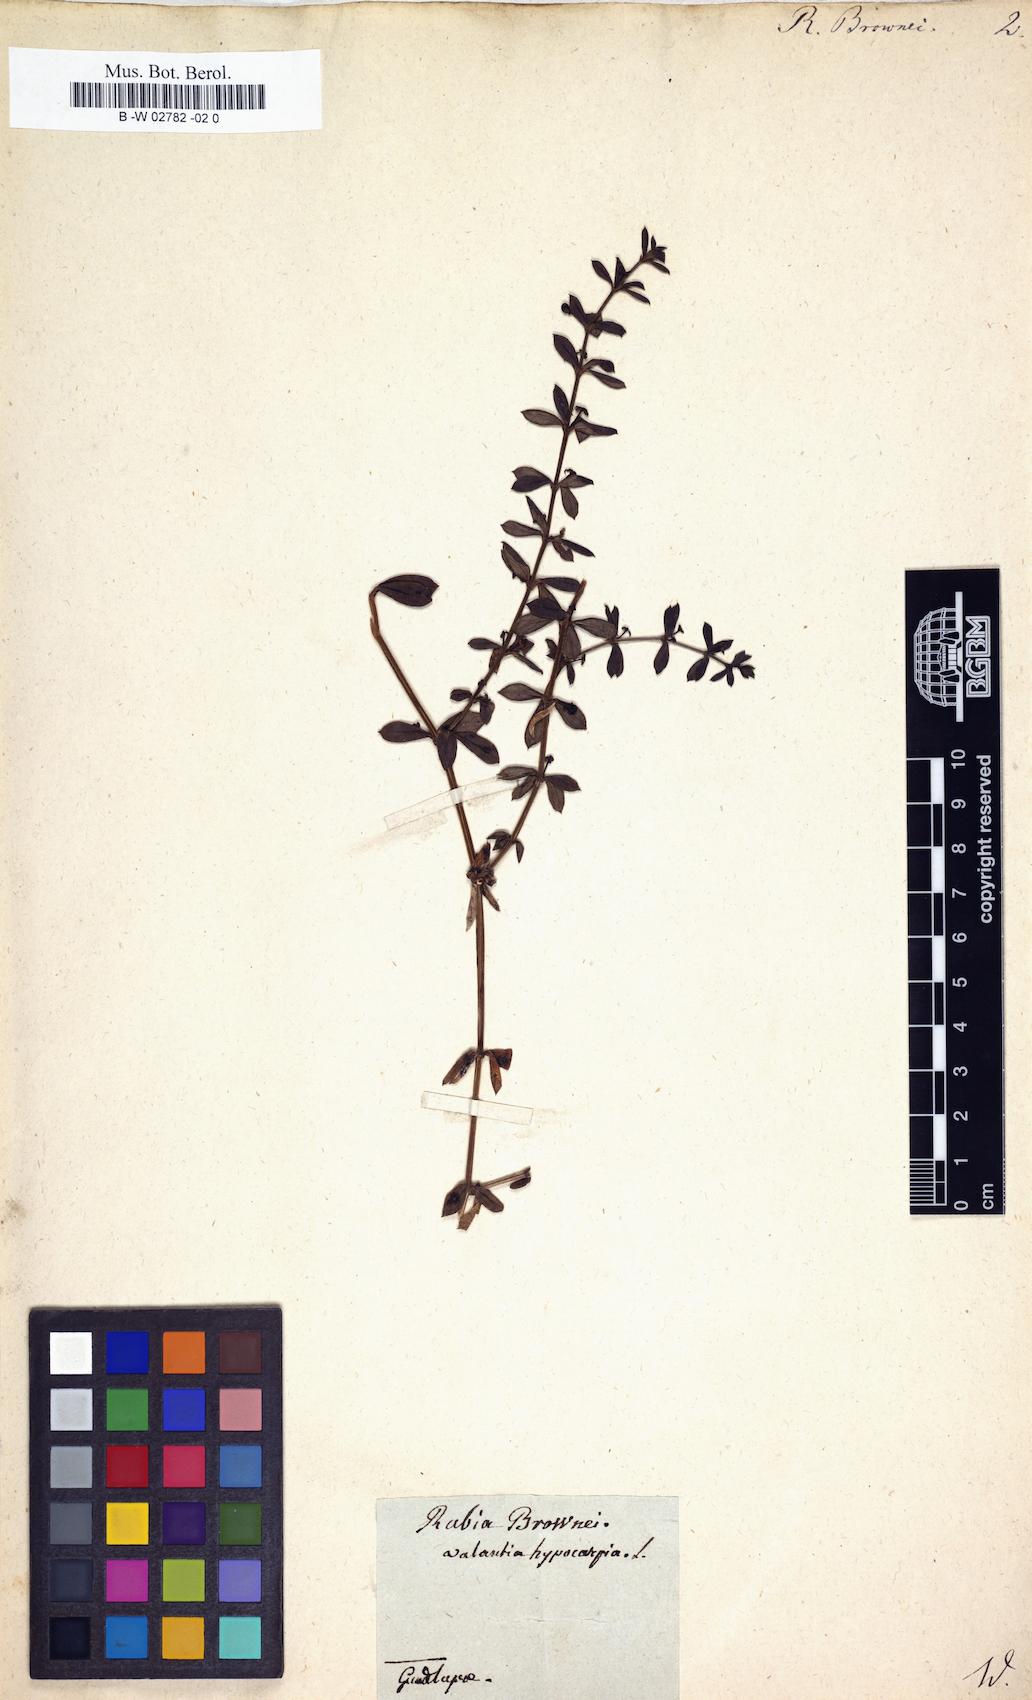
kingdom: Plantae
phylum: Tracheophyta
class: Magnoliopsida
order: Gentianales
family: Rubiaceae
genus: Galium
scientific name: Galium
